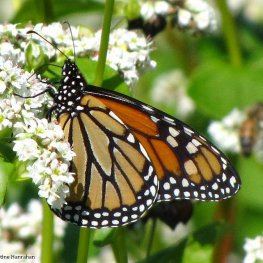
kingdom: Animalia
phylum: Arthropoda
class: Insecta
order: Lepidoptera
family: Nymphalidae
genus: Danaus
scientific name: Danaus plexippus
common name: Monarch
